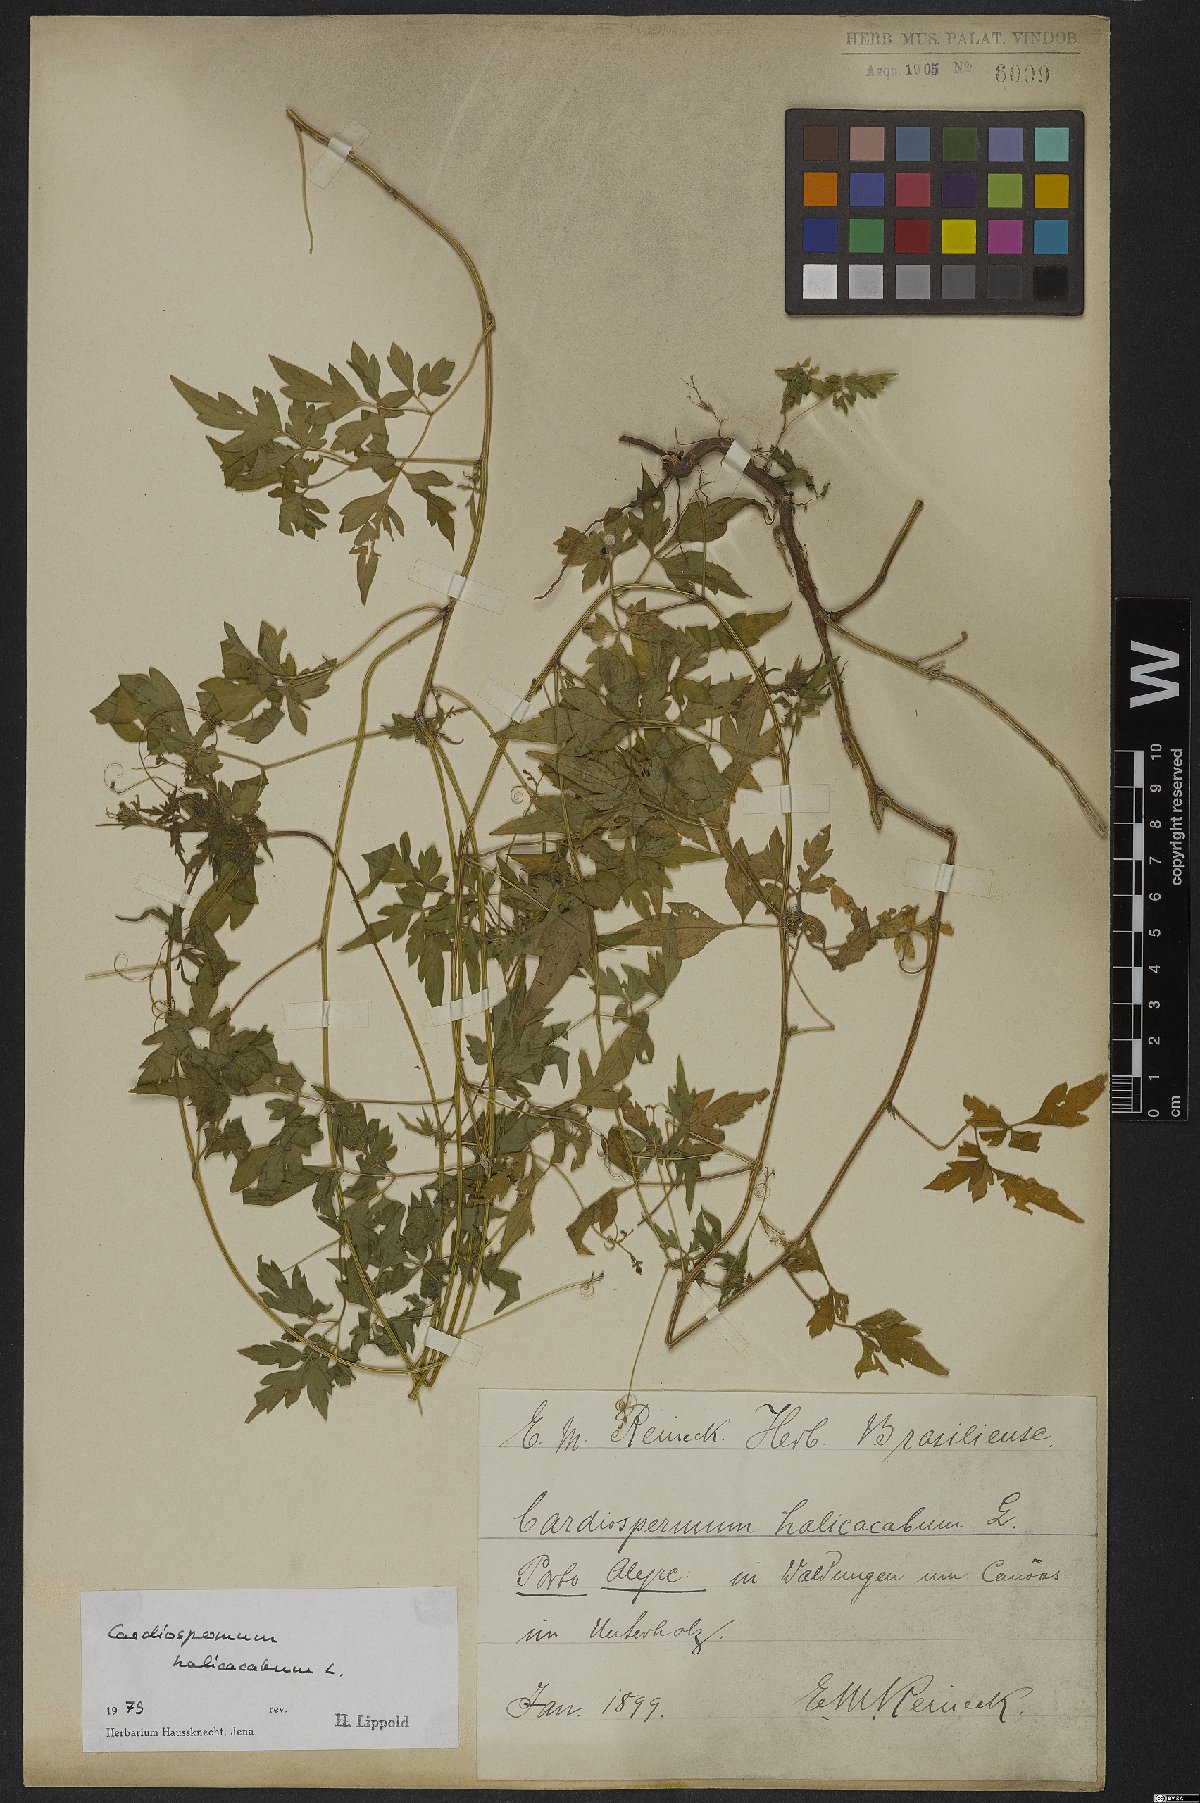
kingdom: Plantae
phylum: Tracheophyta
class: Magnoliopsida
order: Sapindales
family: Sapindaceae
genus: Cardiospermum
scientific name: Cardiospermum halicacabum
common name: Balloon vine
